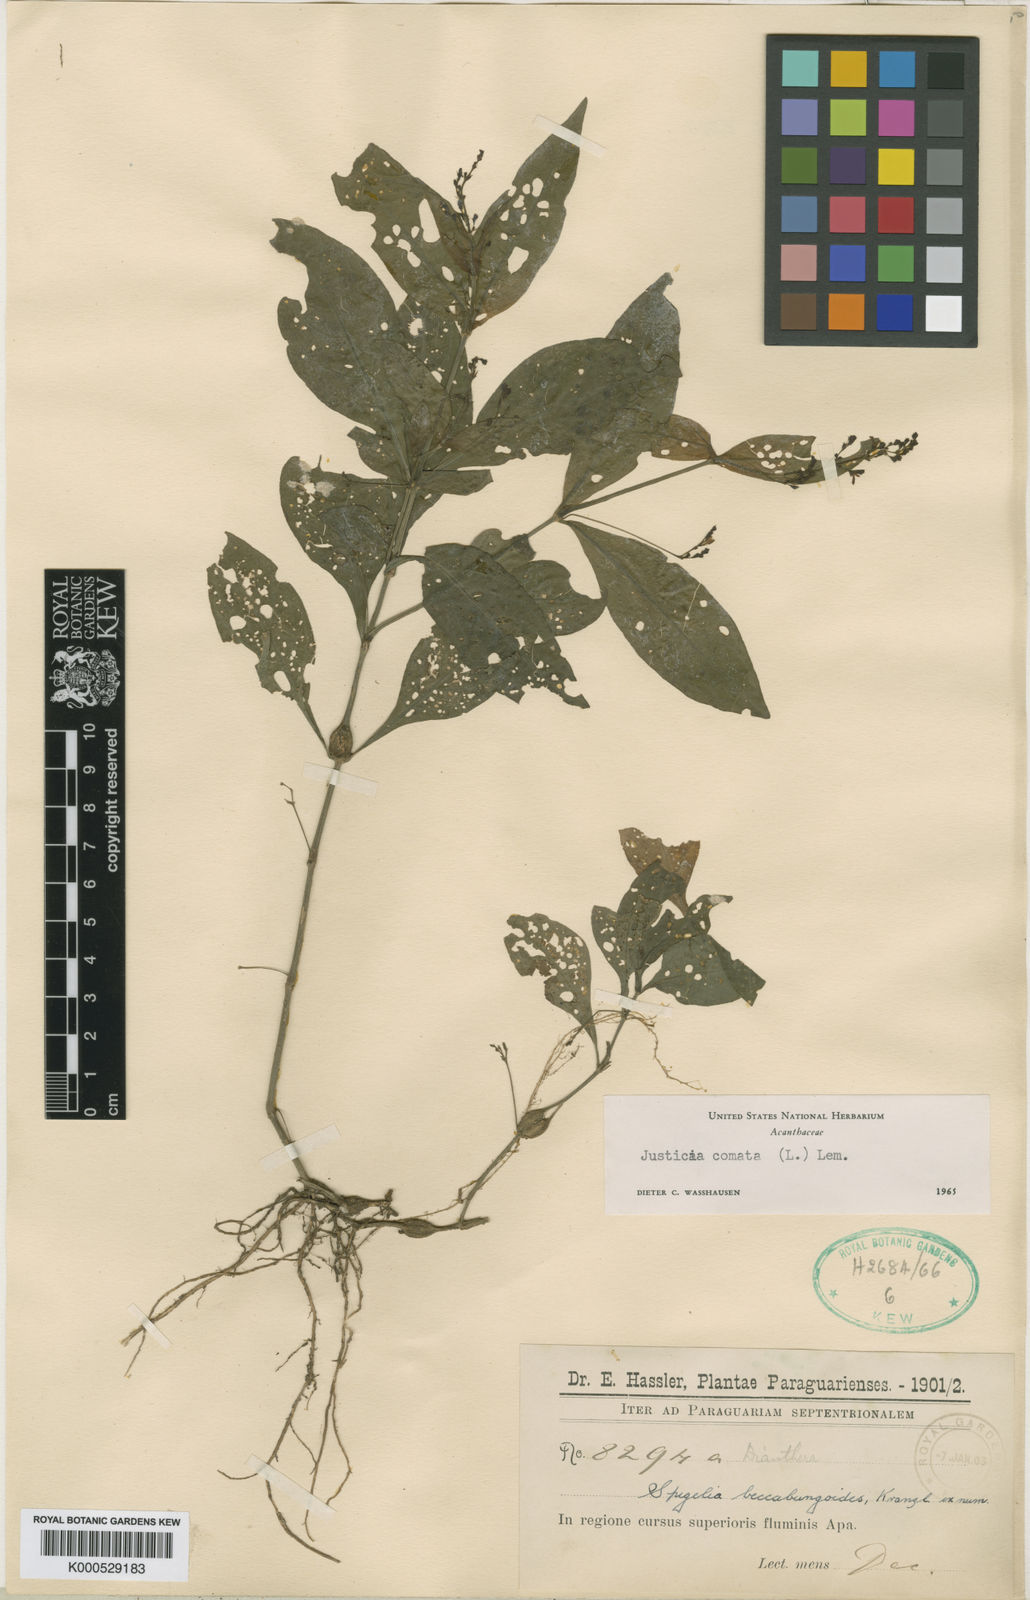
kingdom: Plantae
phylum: Tracheophyta
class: Magnoliopsida
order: Lamiales
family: Acanthaceae
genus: Dianthera
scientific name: Dianthera comata
